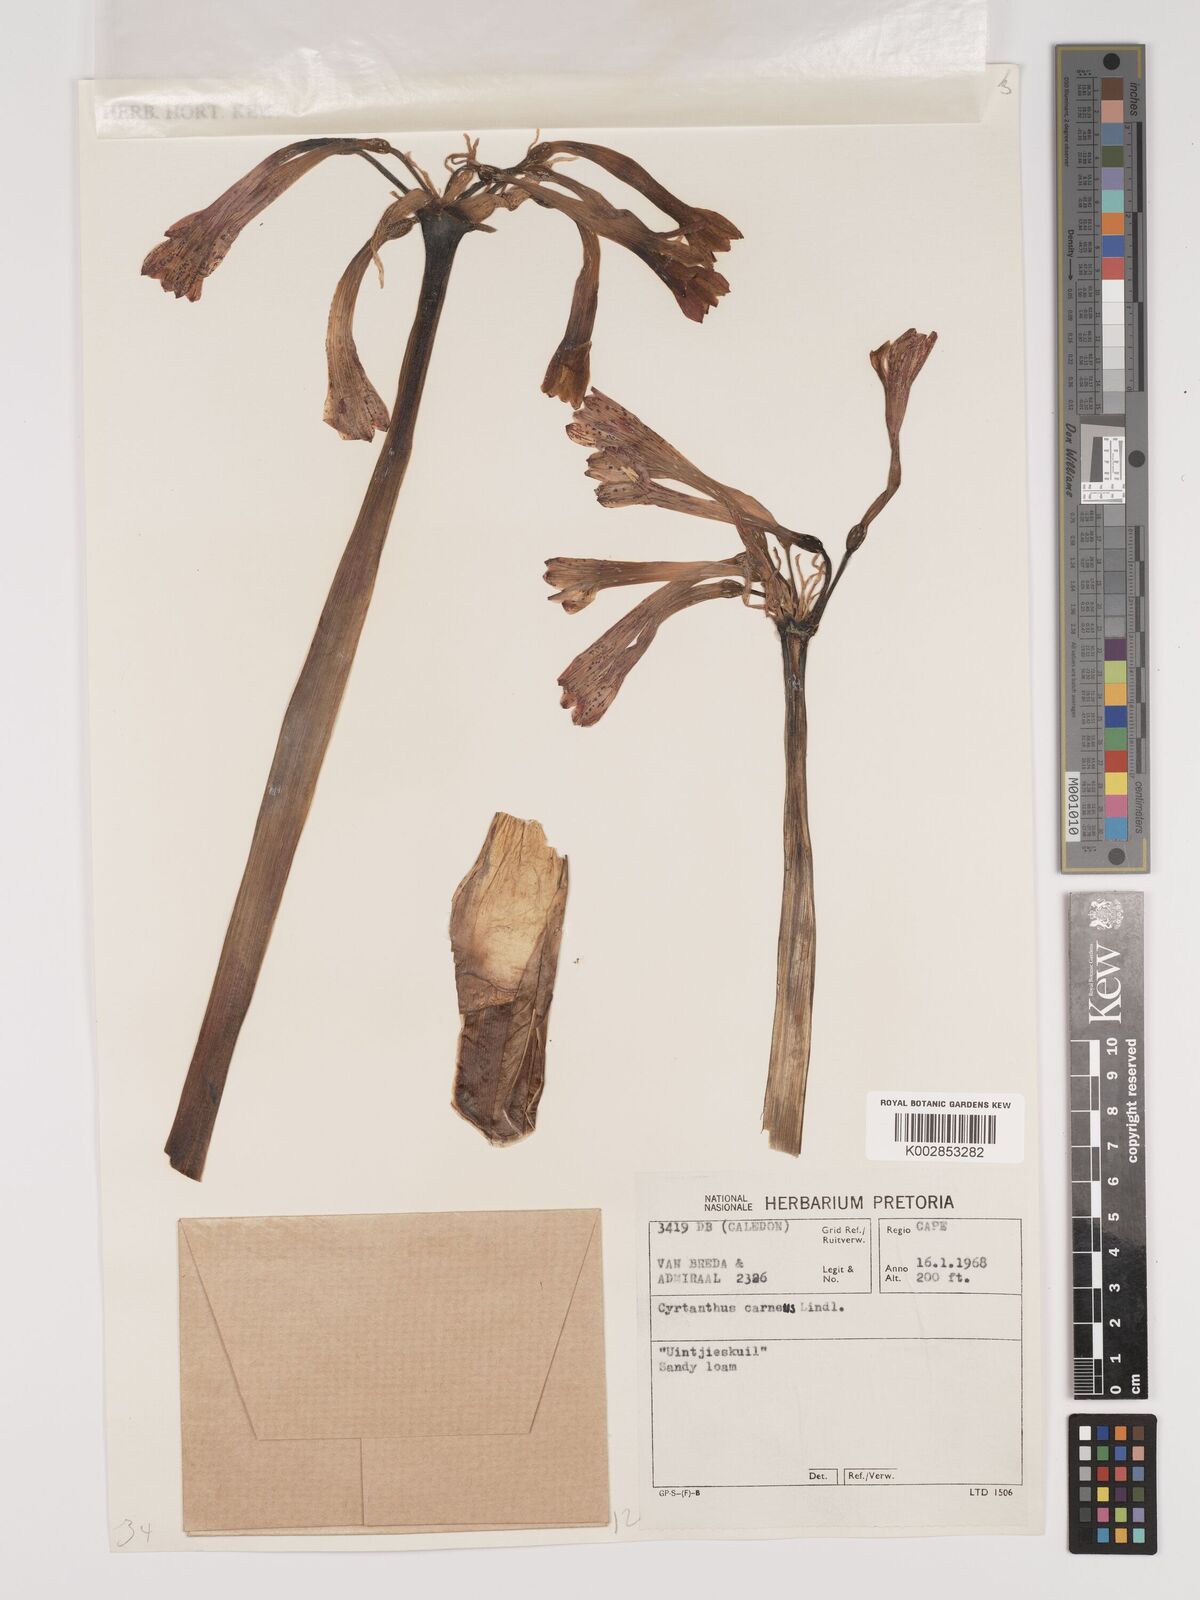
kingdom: Plantae
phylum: Tracheophyta
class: Liliopsida
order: Asparagales
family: Amaryllidaceae
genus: Cyrtanthus
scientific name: Cyrtanthus carneus
